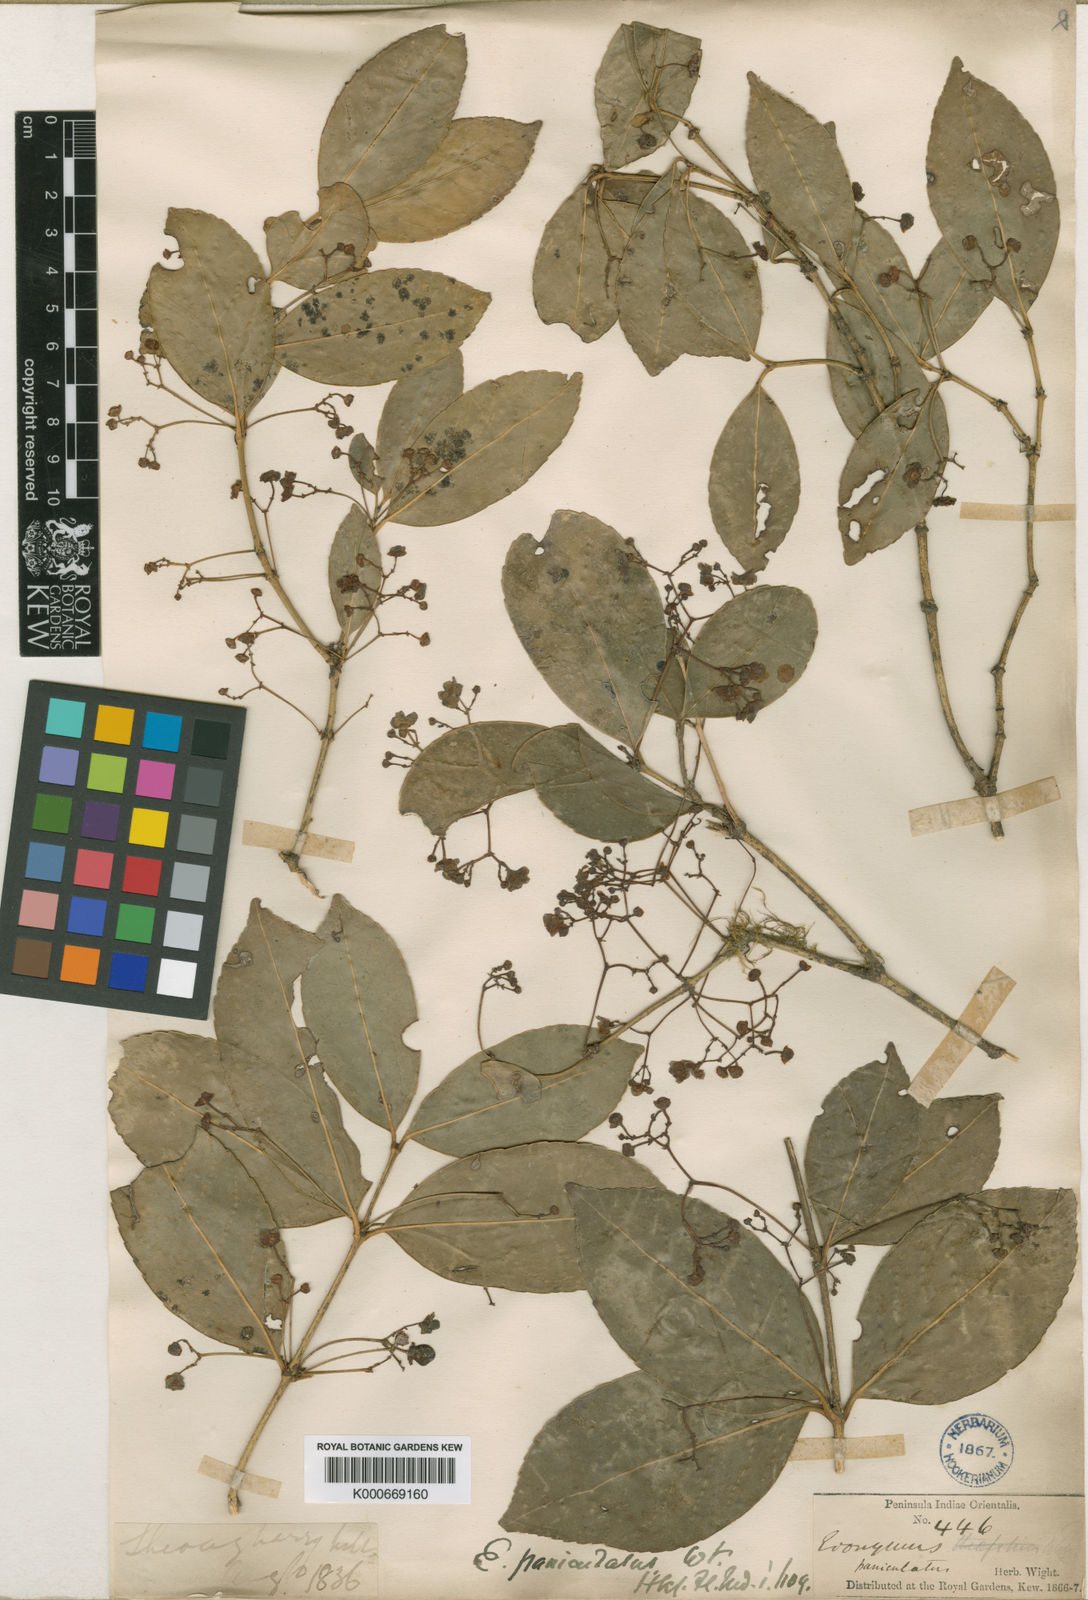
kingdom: Plantae
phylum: Tracheophyta
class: Magnoliopsida
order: Celastrales
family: Celastraceae
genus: Euonymus
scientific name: Euonymus laxiflorus
